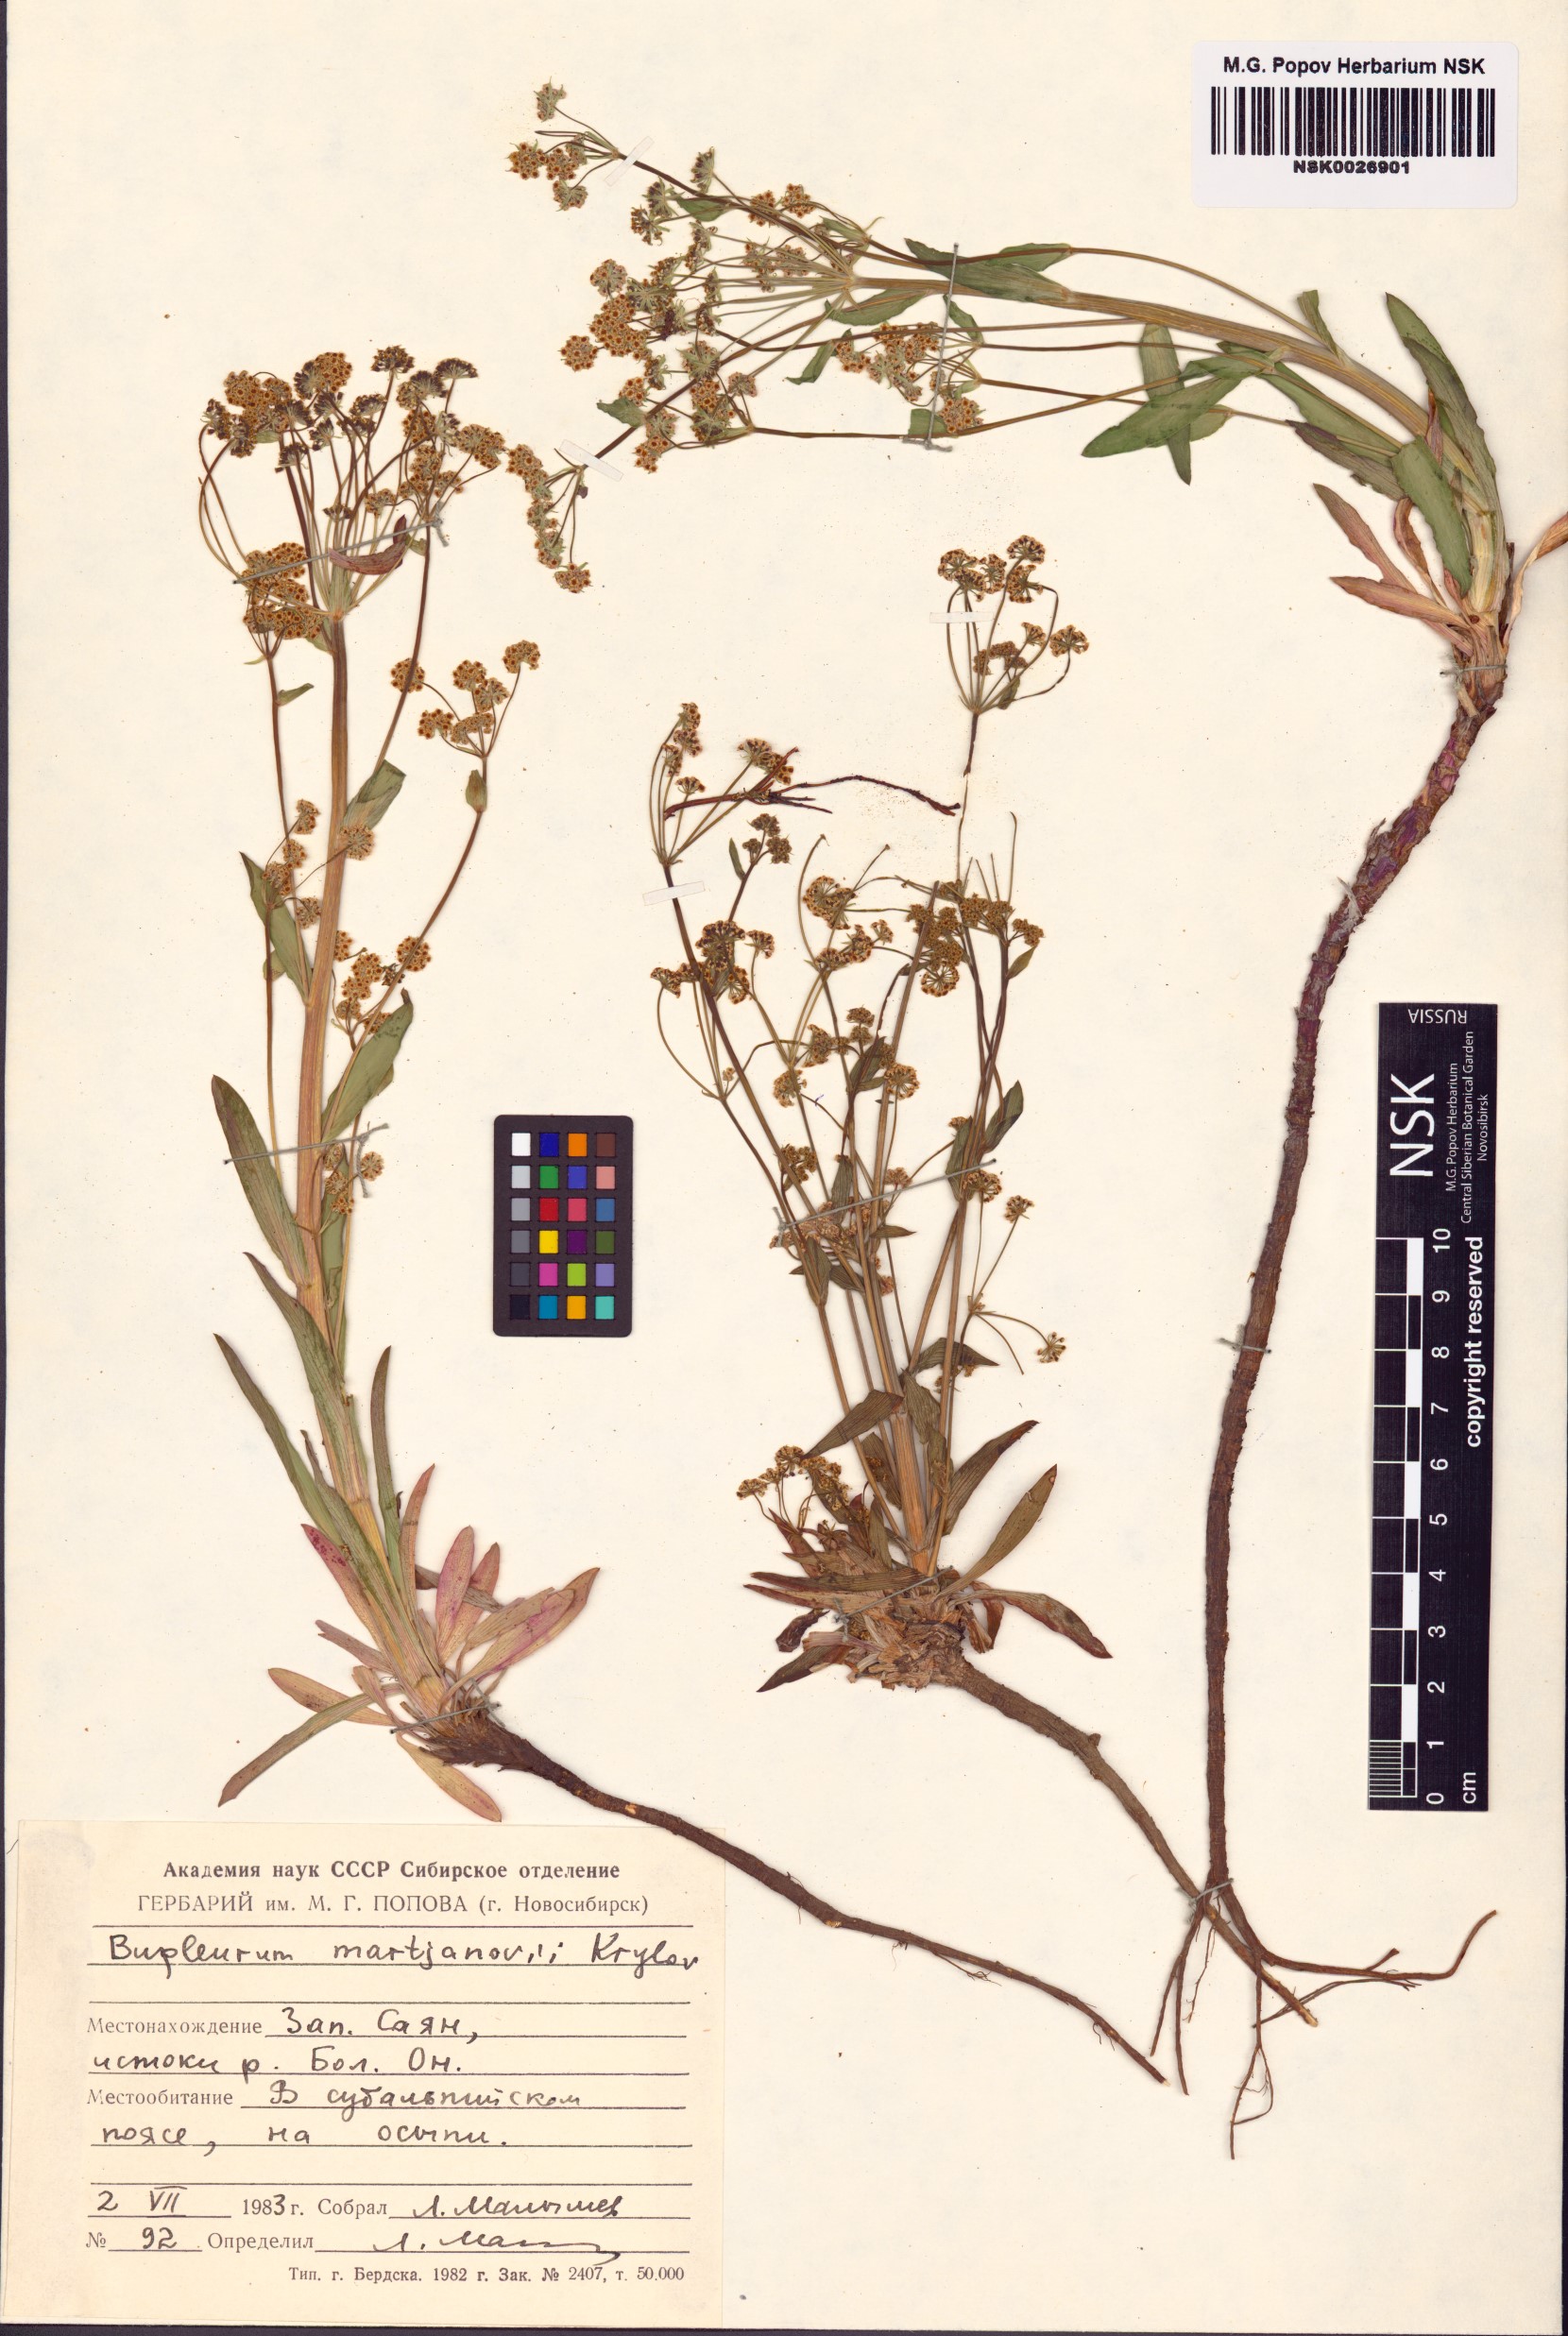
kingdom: Plantae
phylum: Tracheophyta
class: Magnoliopsida
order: Apiales
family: Apiaceae
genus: Bupleurum
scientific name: Bupleurum martjanovii
